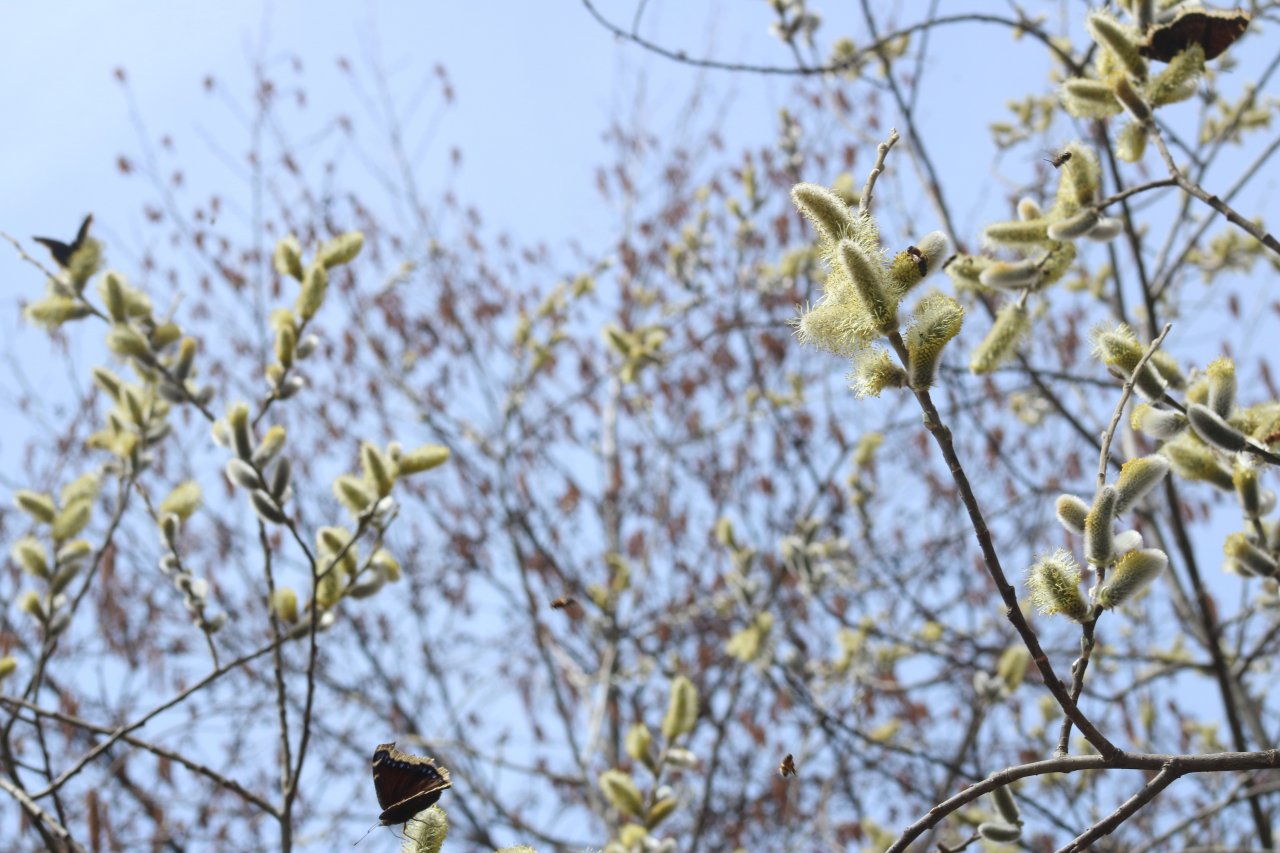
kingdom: Animalia
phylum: Arthropoda
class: Insecta
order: Lepidoptera
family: Nymphalidae
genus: Nymphalis
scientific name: Nymphalis antiopa
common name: Mourning Cloak
